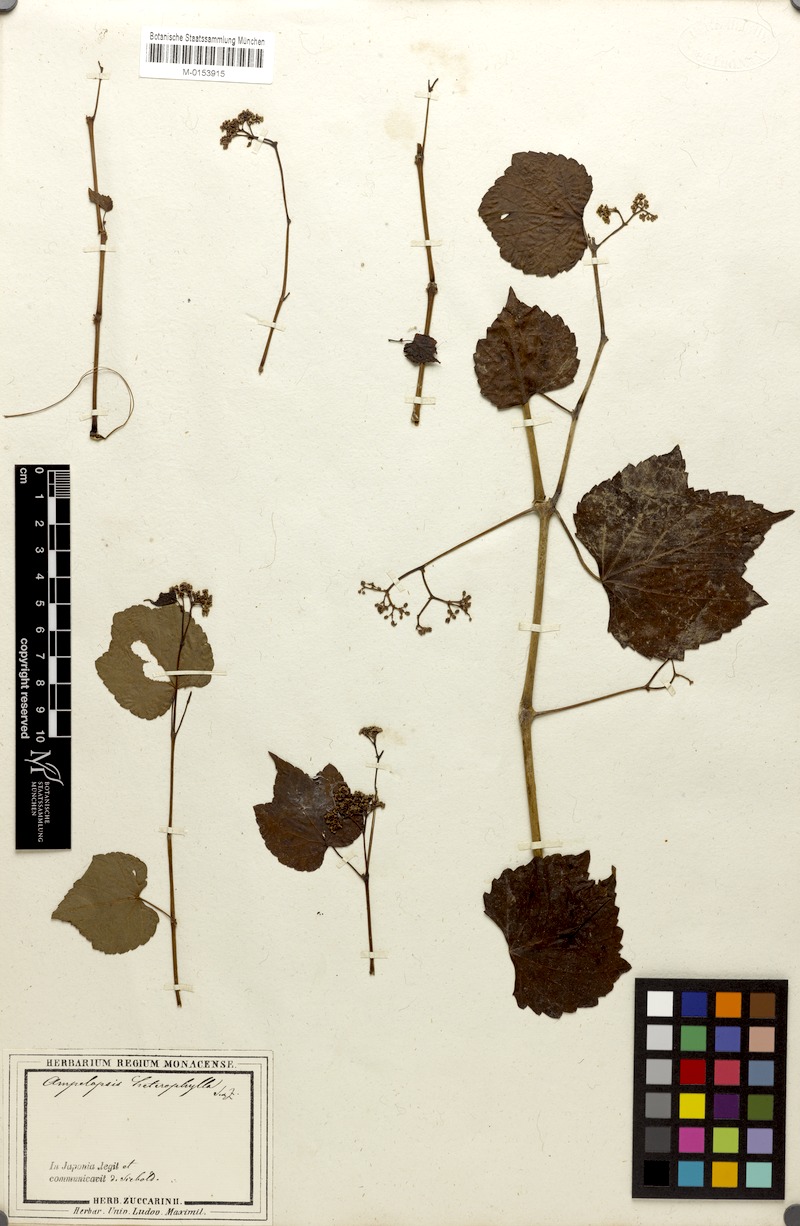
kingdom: Plantae
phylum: Tracheophyta
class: Magnoliopsida
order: Vitales
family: Vitaceae
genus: Ampelopsis
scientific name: Ampelopsis glandulosa
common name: Amur peppervine
